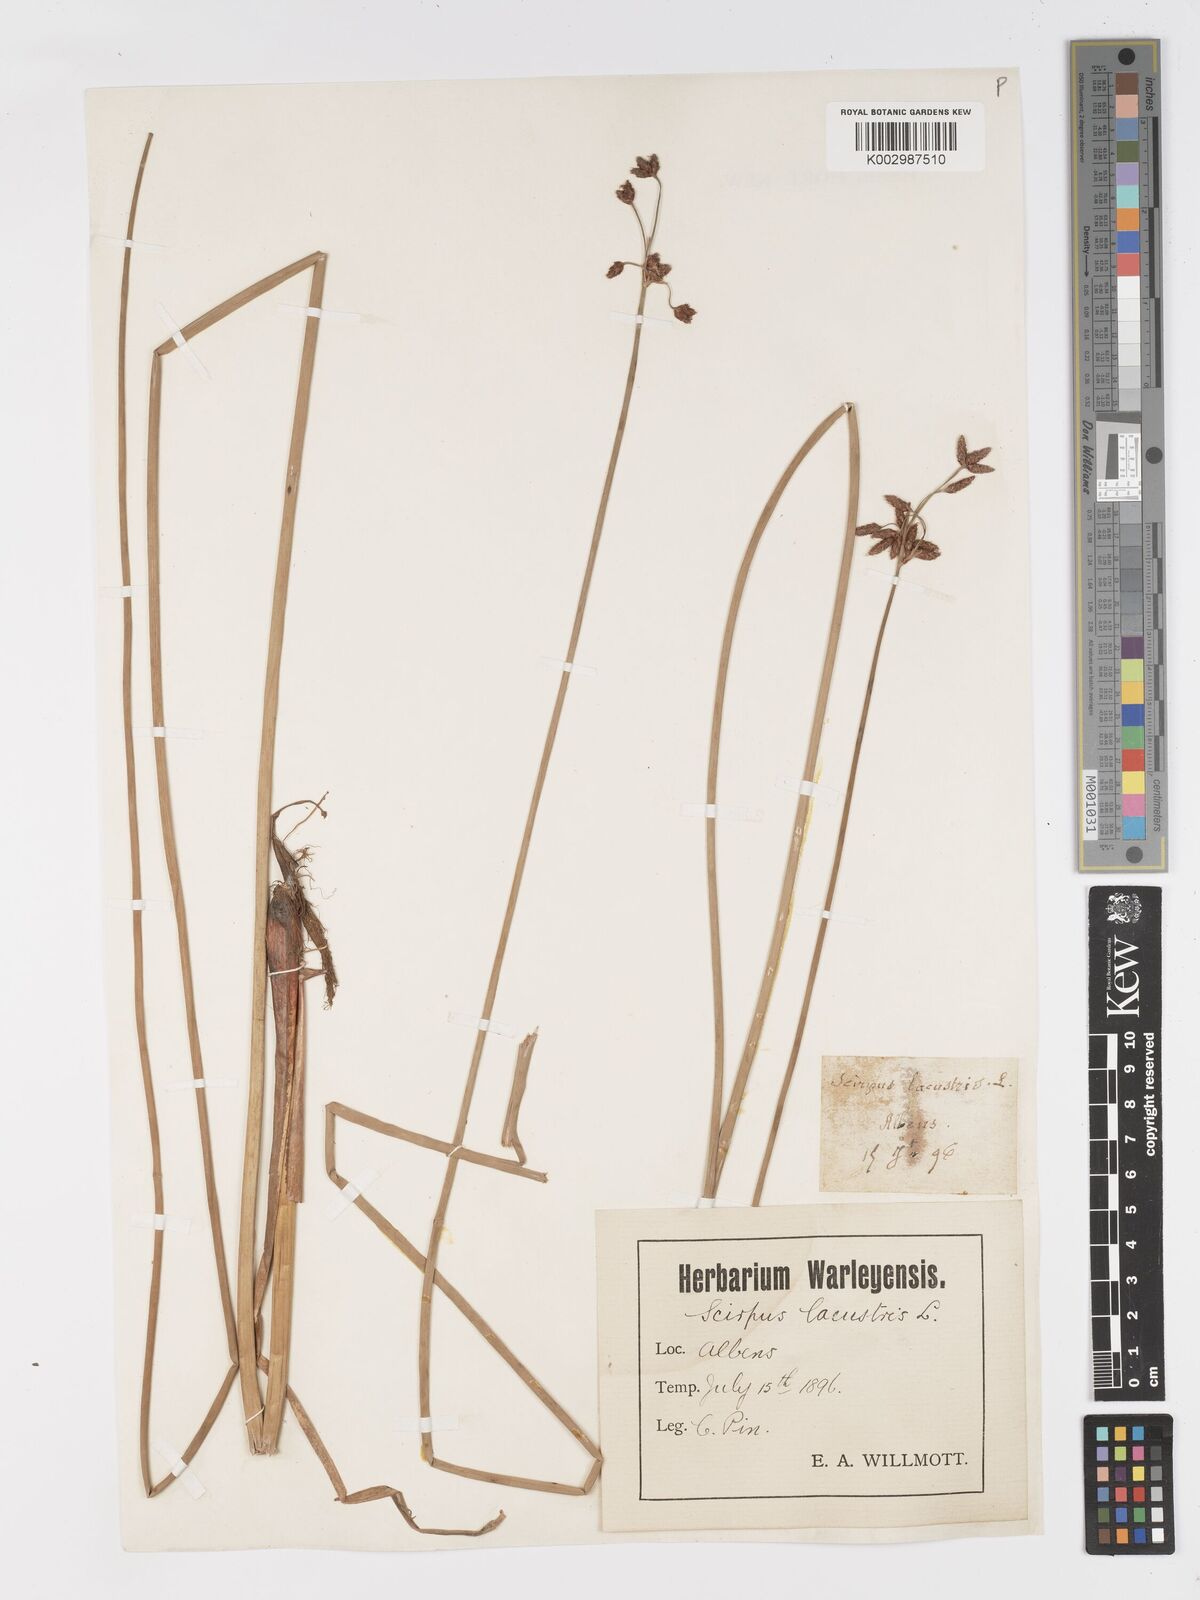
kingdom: Plantae
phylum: Tracheophyta
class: Liliopsida
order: Poales
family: Cyperaceae
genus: Schoenoplectus
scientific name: Schoenoplectus lacustris
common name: Common club-rush
